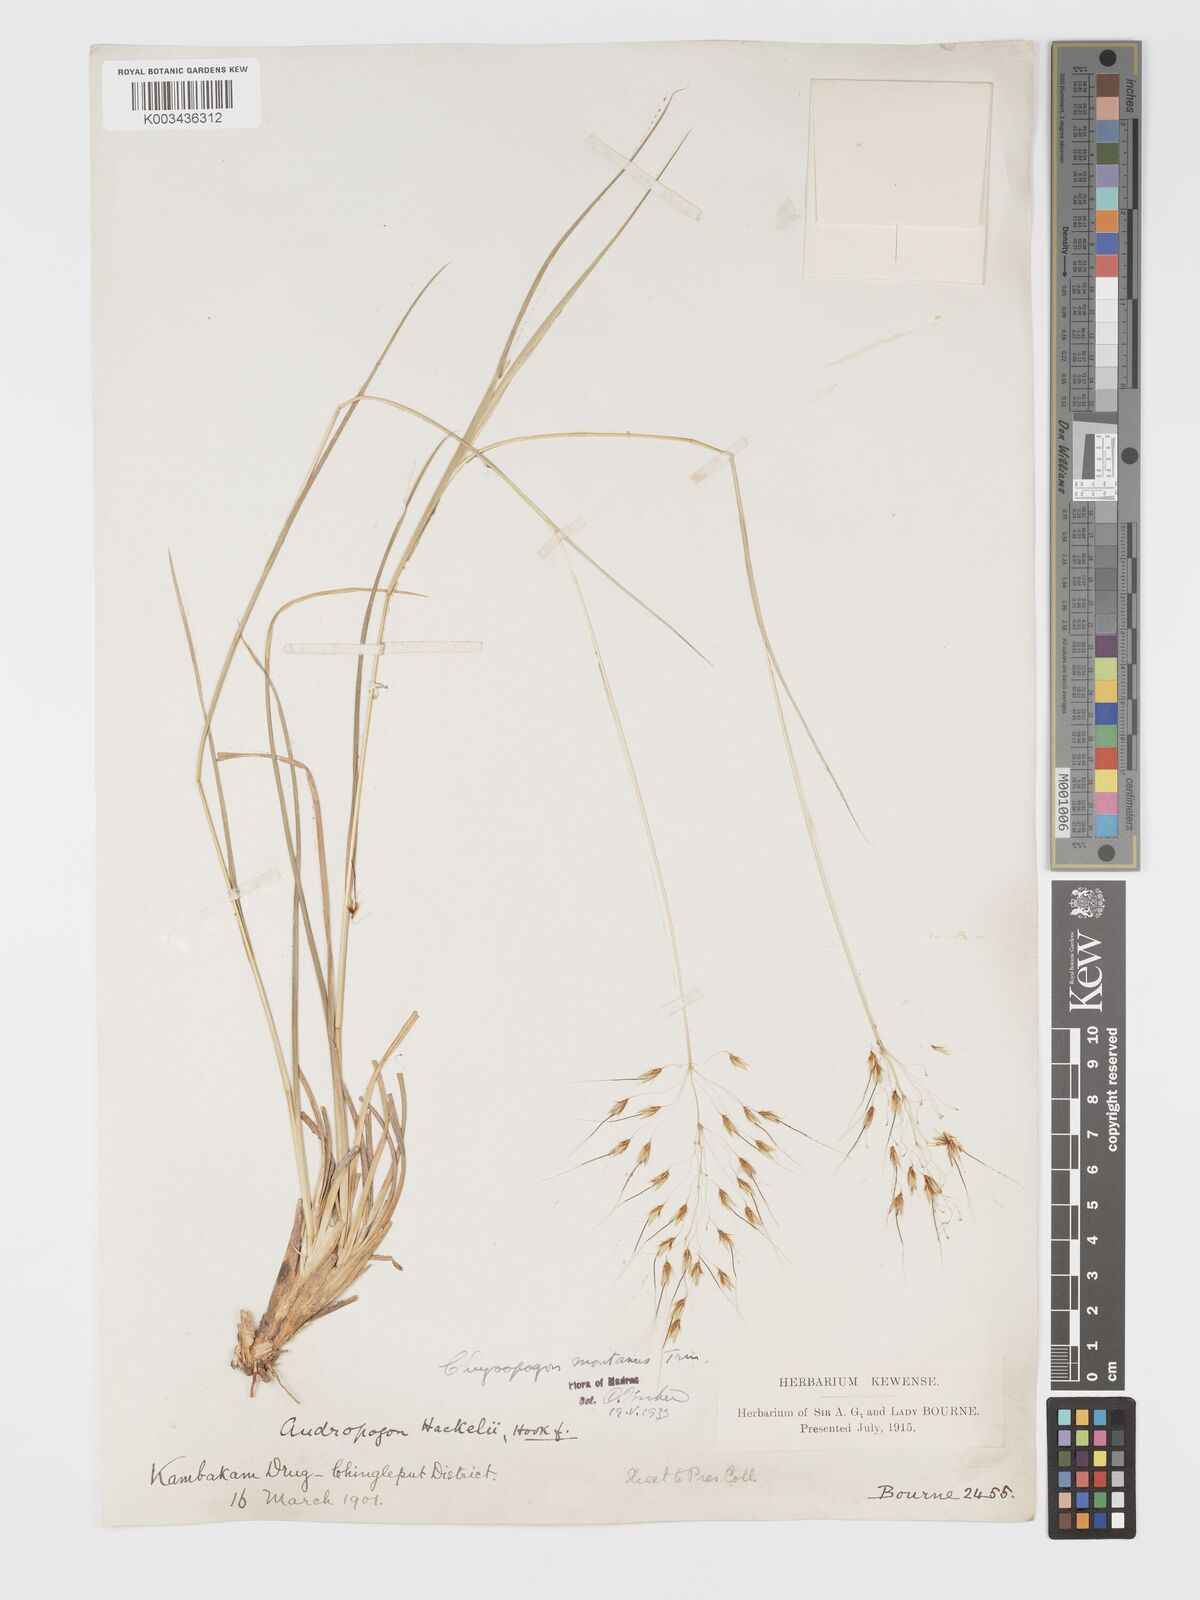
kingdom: Plantae
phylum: Tracheophyta
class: Liliopsida
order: Poales
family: Poaceae
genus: Chrysopogon
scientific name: Chrysopogon fulvus
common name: Red false beardgrass
